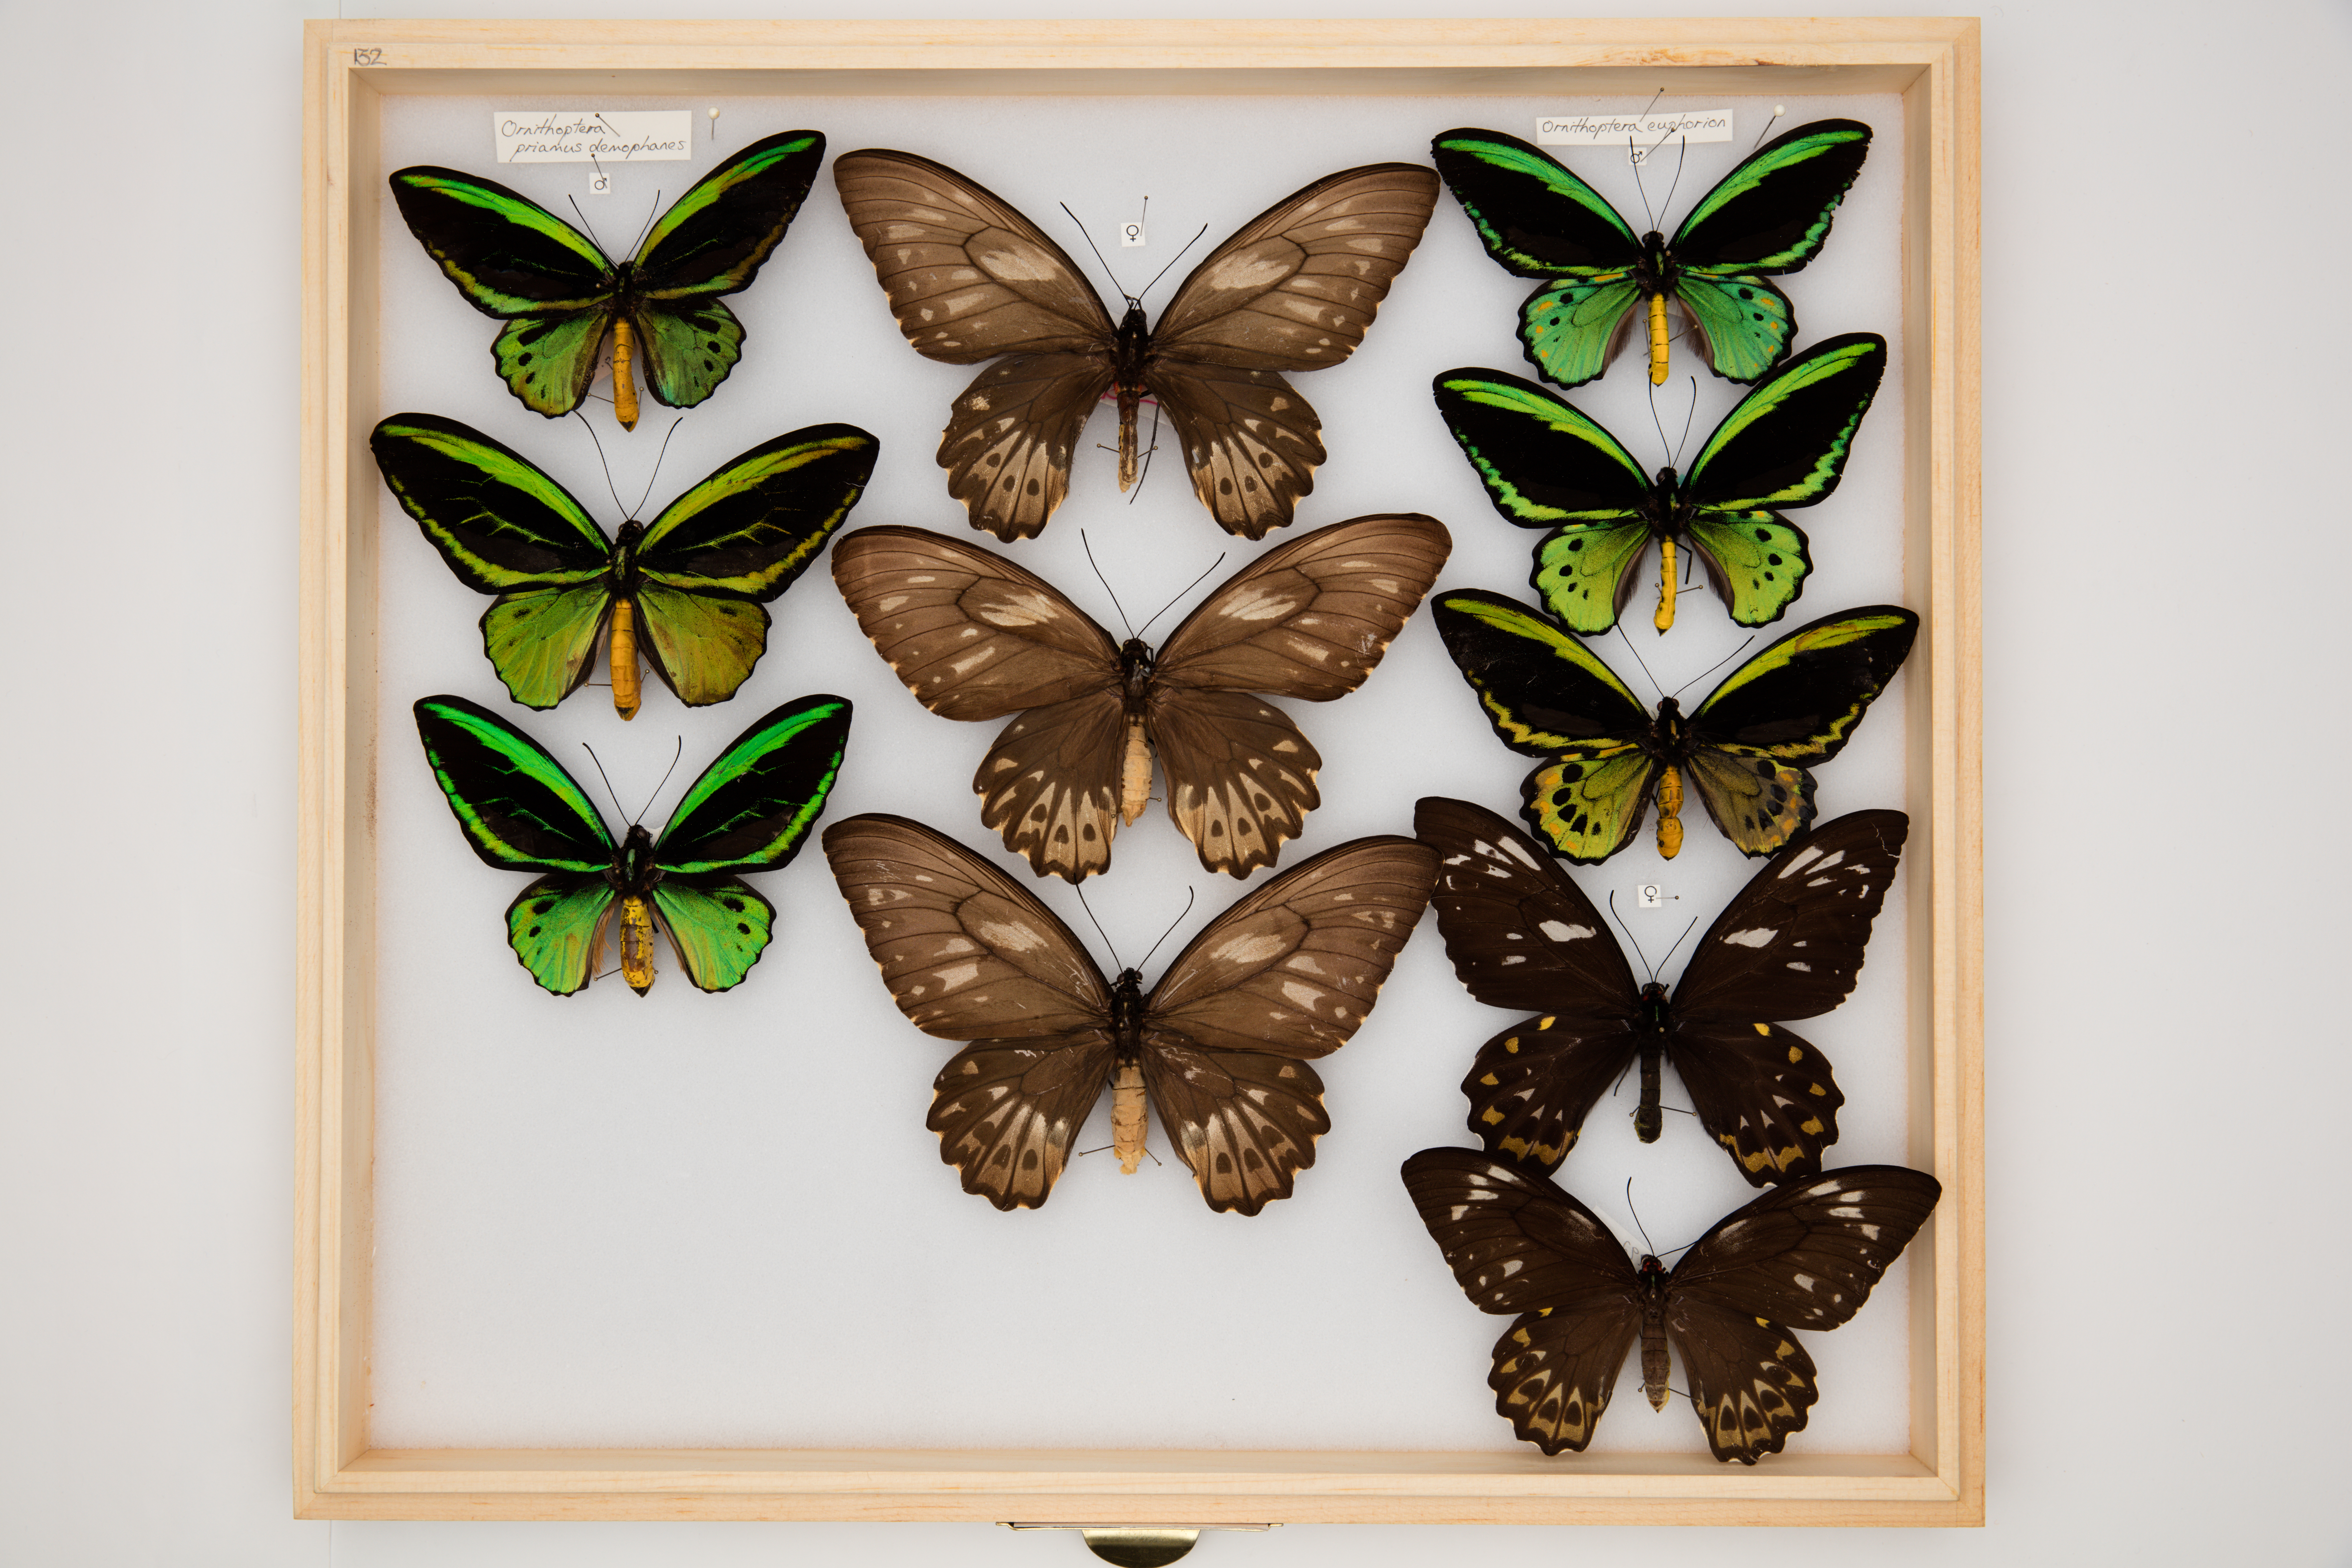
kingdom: Animalia
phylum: Arthropoda
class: Insecta
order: Lepidoptera
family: Papilionidae
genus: Ornithoptera
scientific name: Ornithoptera priamus
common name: Cape york birdwing
